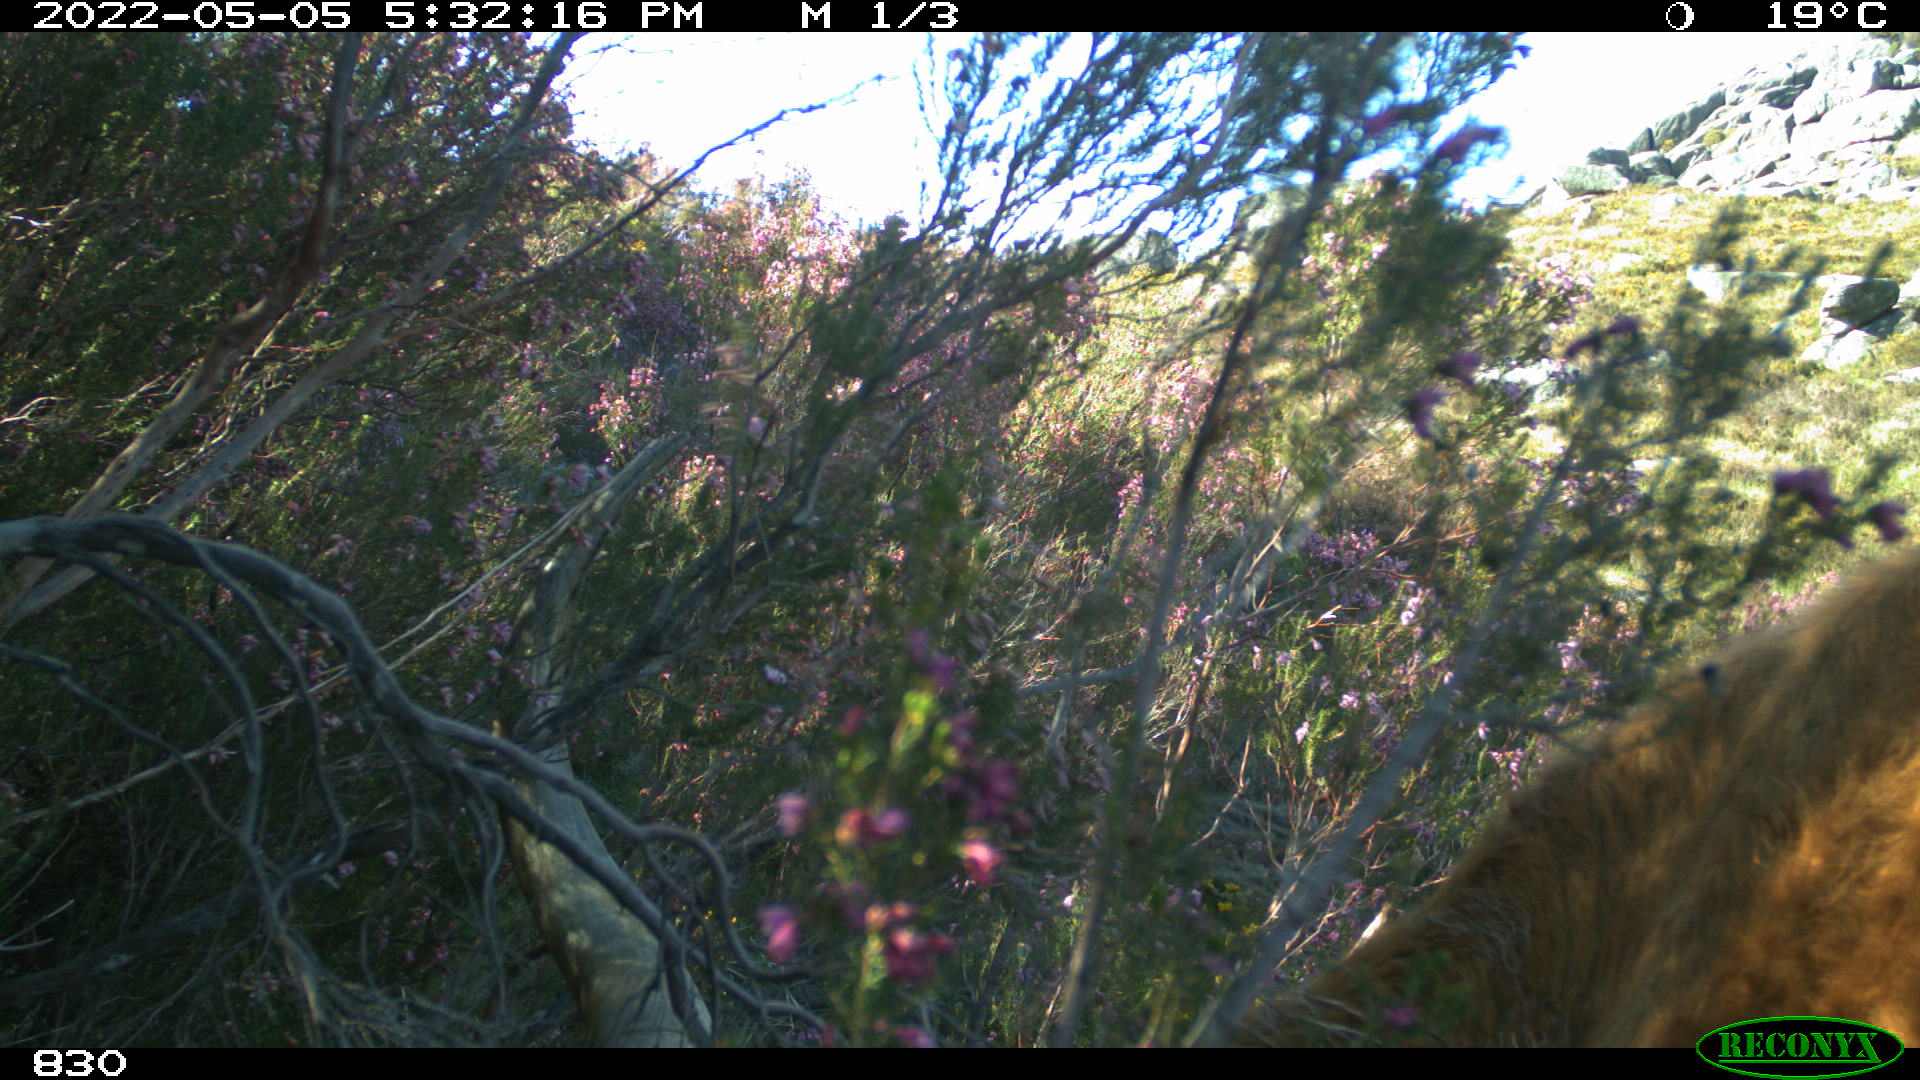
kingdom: Animalia
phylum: Chordata
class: Mammalia
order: Artiodactyla
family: Bovidae
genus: Bos
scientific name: Bos taurus
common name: Domesticated cattle
